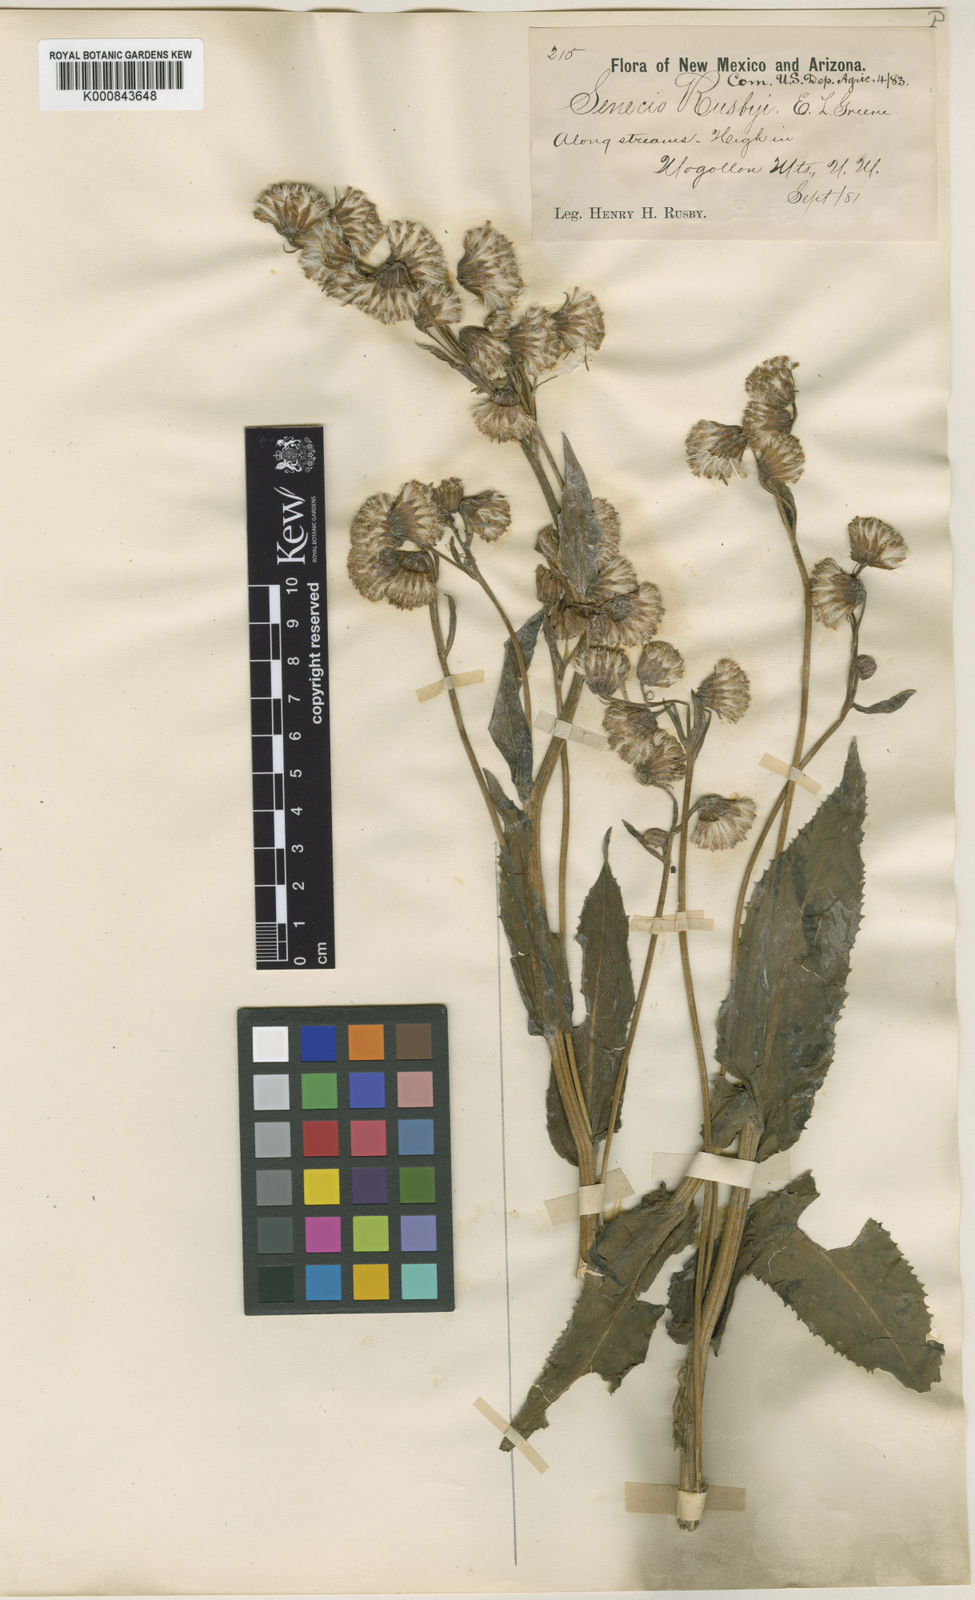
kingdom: Plantae
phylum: Tracheophyta
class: Magnoliopsida
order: Asterales
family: Asteraceae
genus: Senecio
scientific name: Senecio bigelovii
